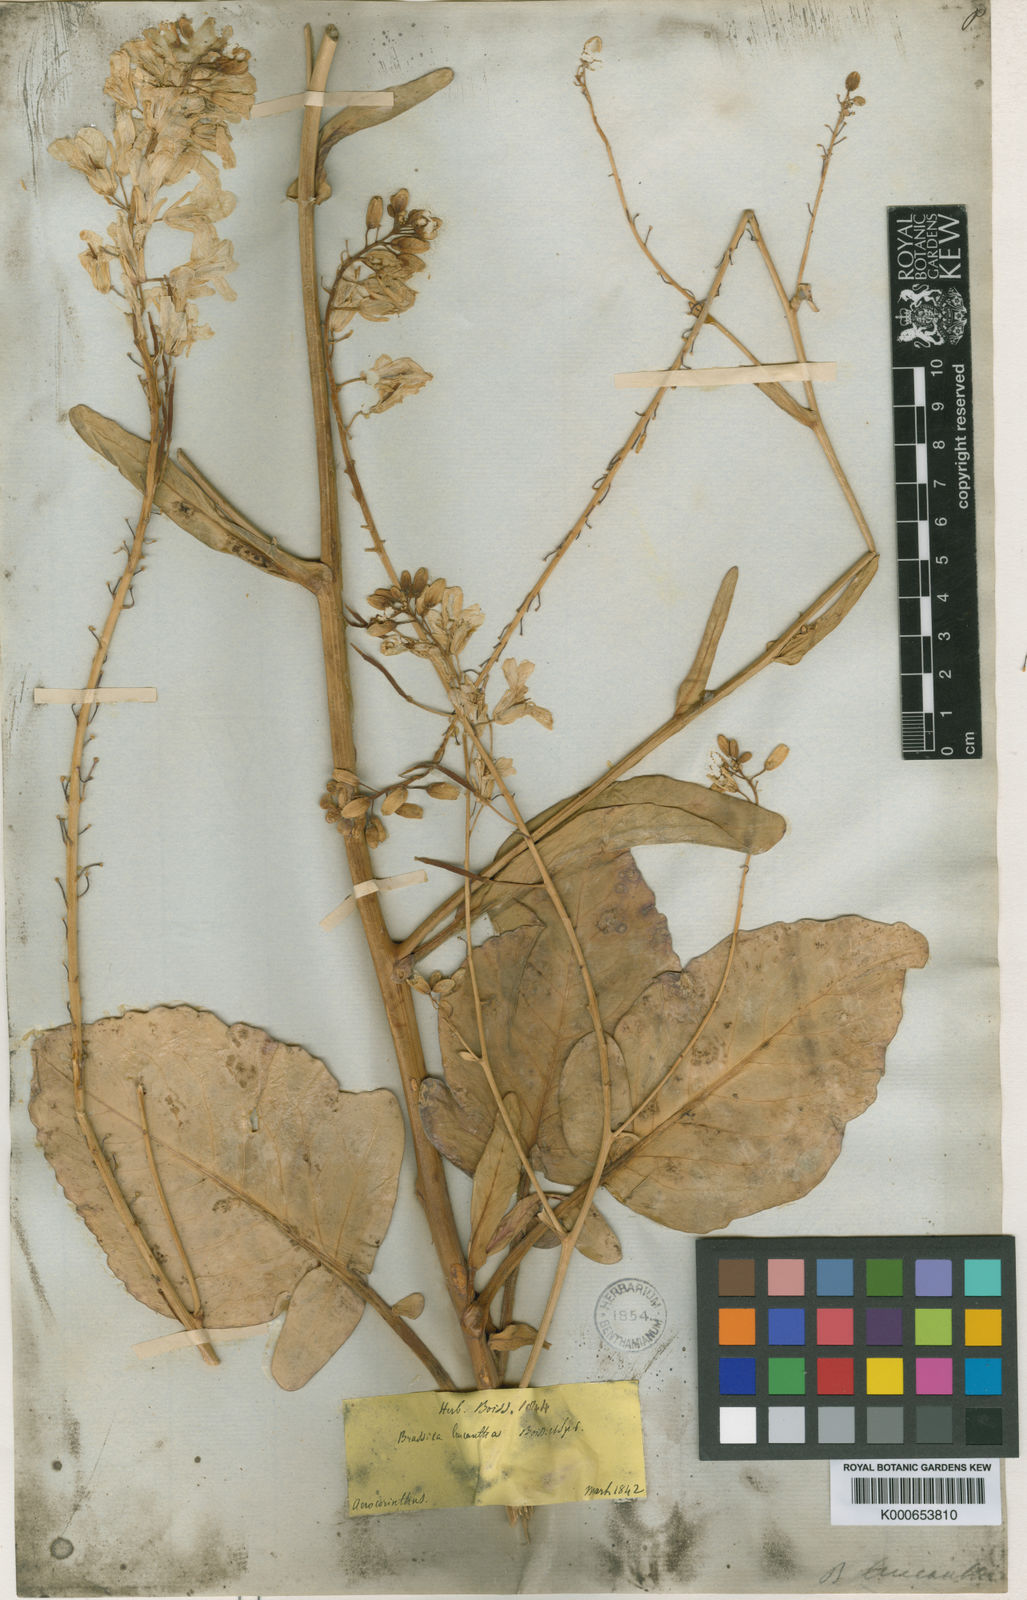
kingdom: Plantae
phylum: Tracheophyta
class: Magnoliopsida
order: Brassicales
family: Brassicaceae
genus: Brassica
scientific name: Brassica cretica
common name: Mustard
